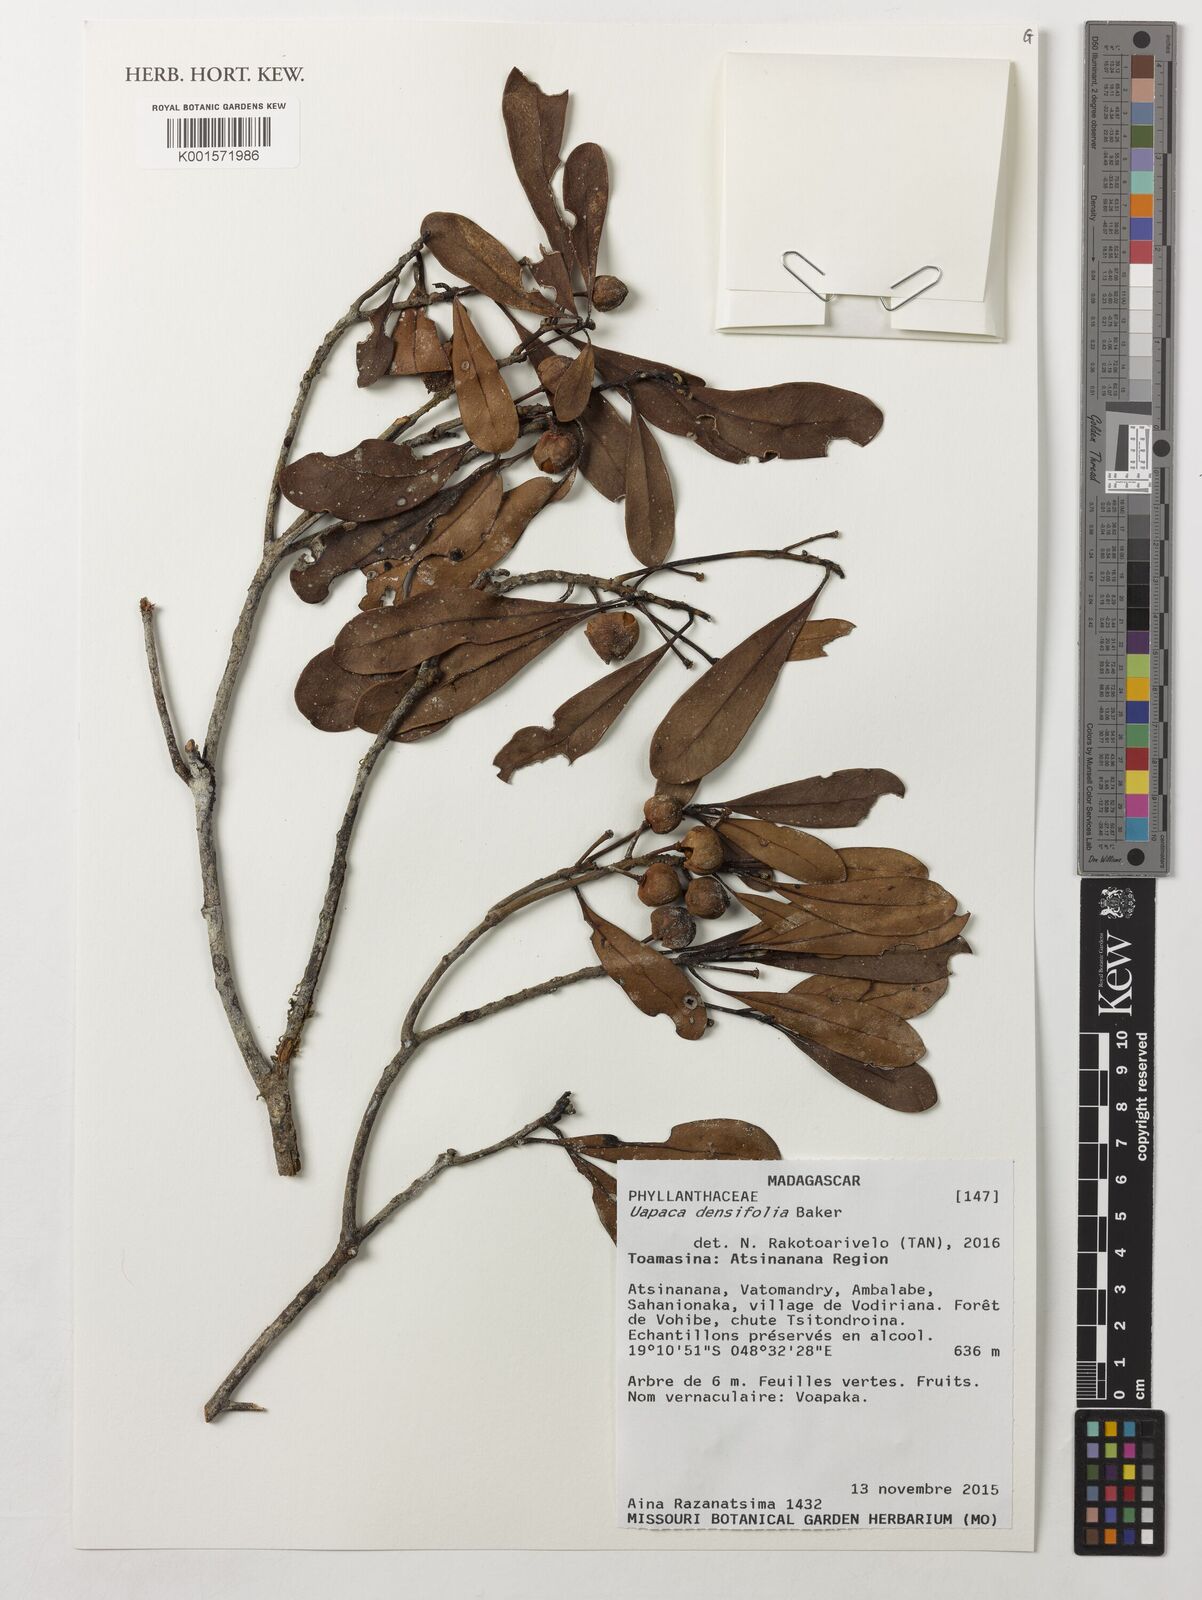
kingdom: Plantae
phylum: Tracheophyta
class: Magnoliopsida
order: Malpighiales
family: Phyllanthaceae
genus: Uapaca
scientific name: Uapaca densifolia
